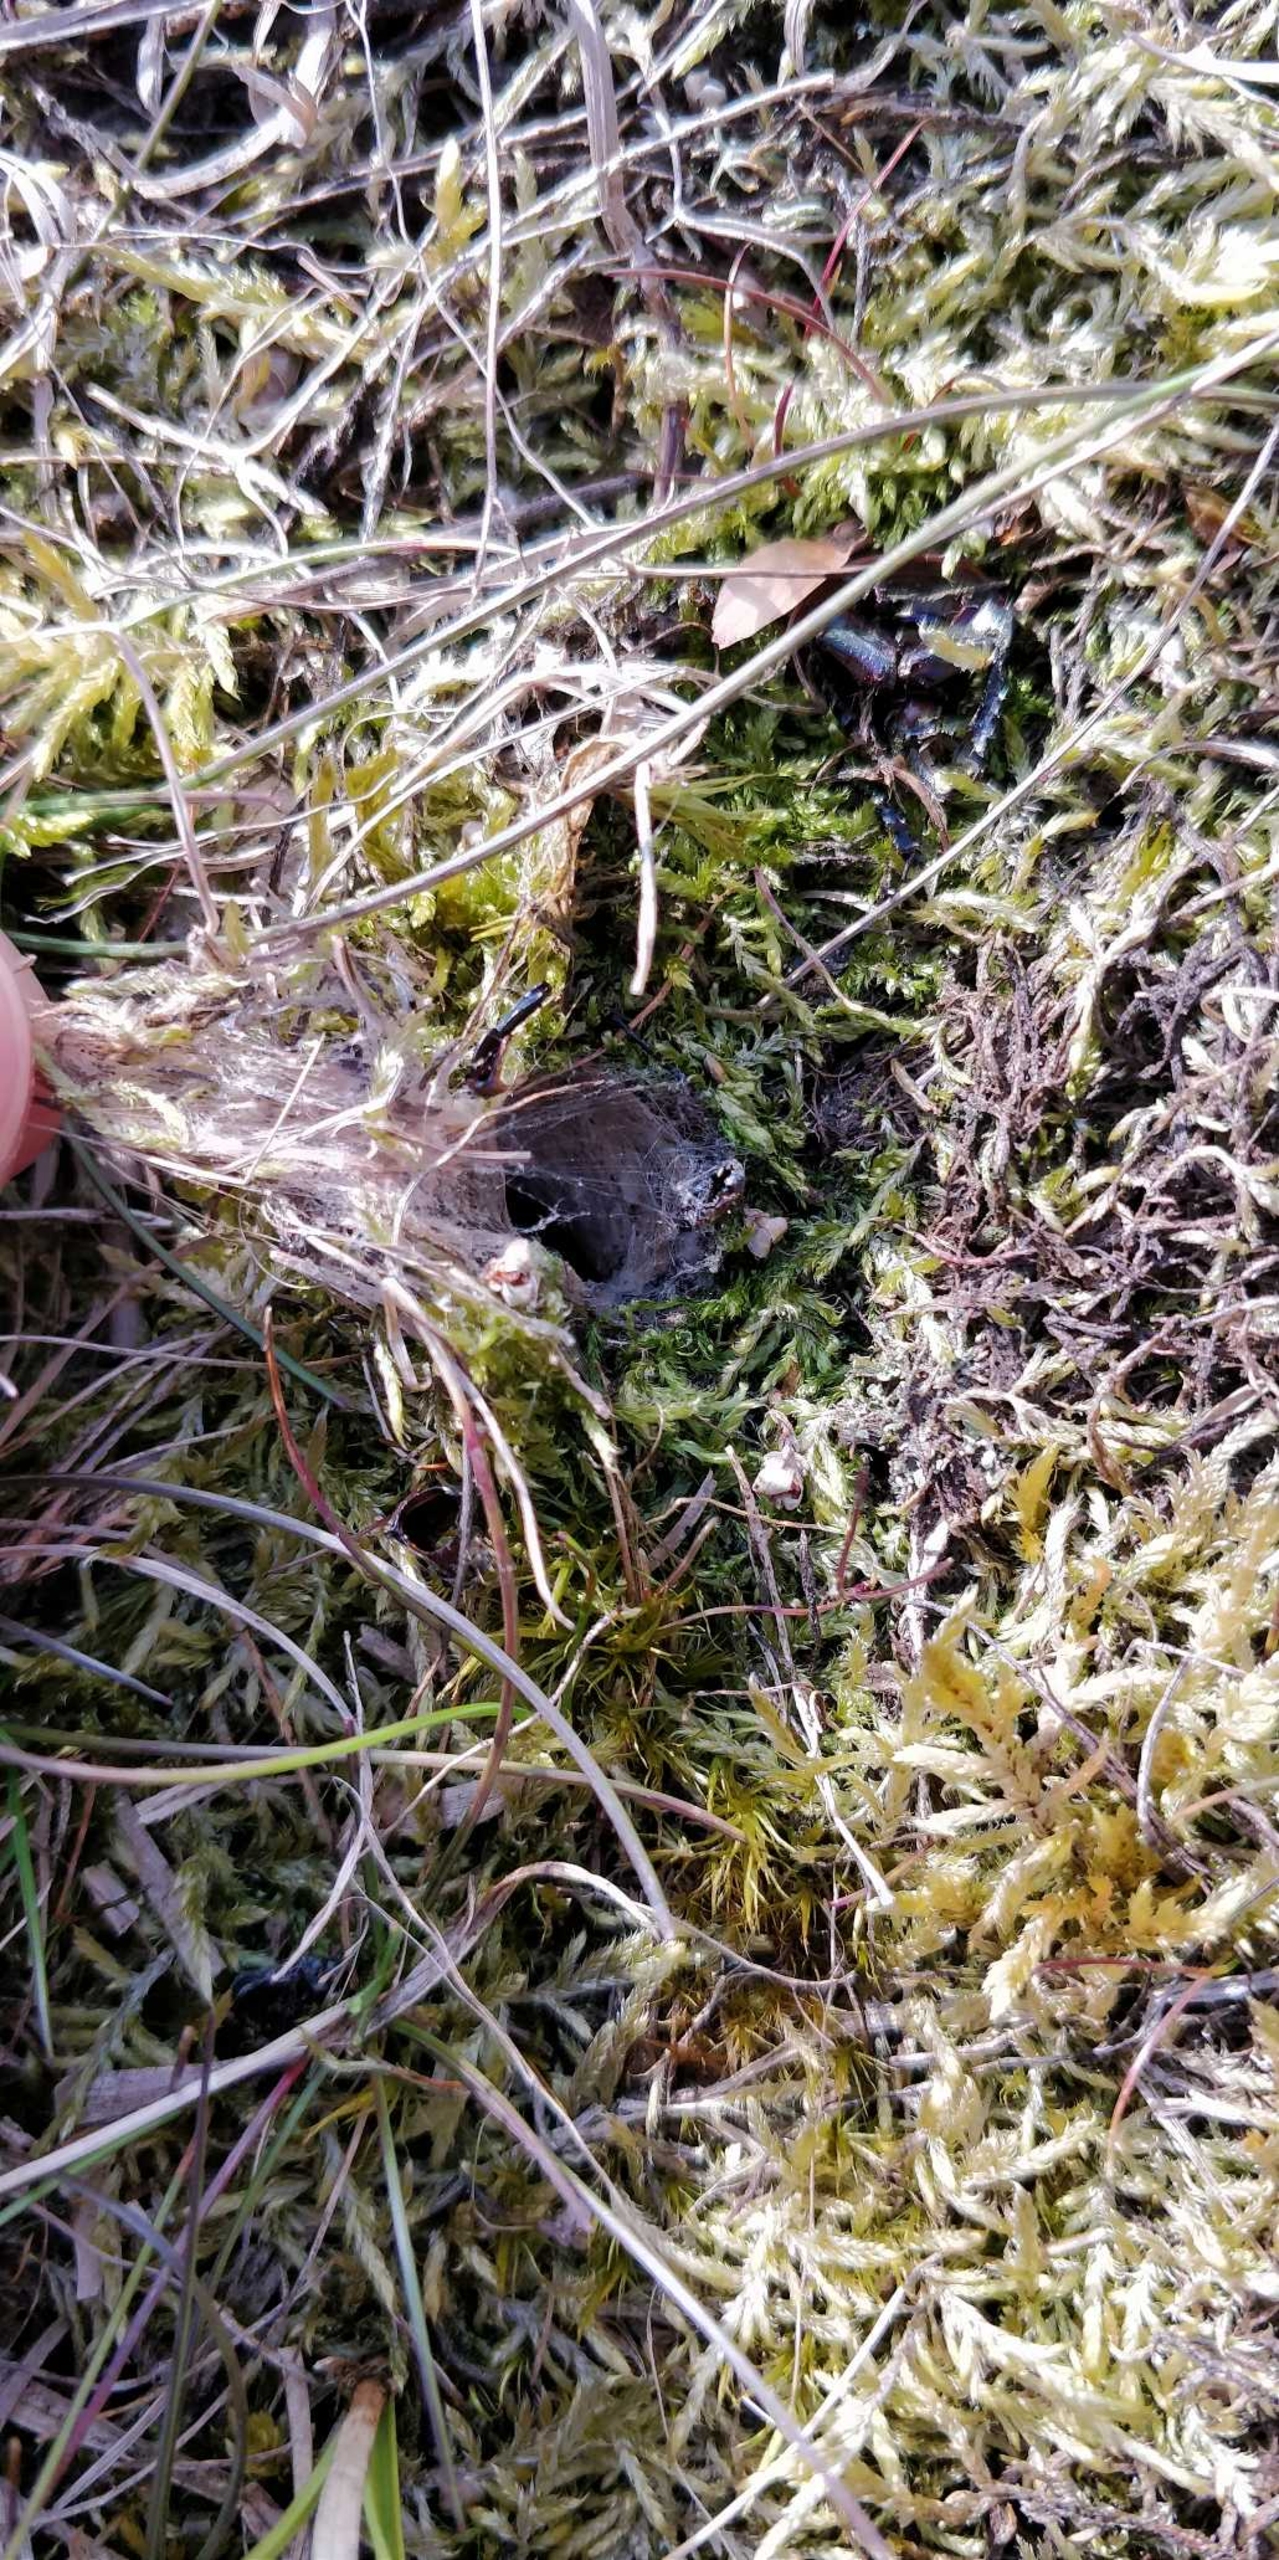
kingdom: Animalia
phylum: Arthropoda
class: Arachnida
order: Araneae
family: Eresidae
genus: Eresus
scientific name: Eresus sandaliatus
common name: Mariehøneedderkop
